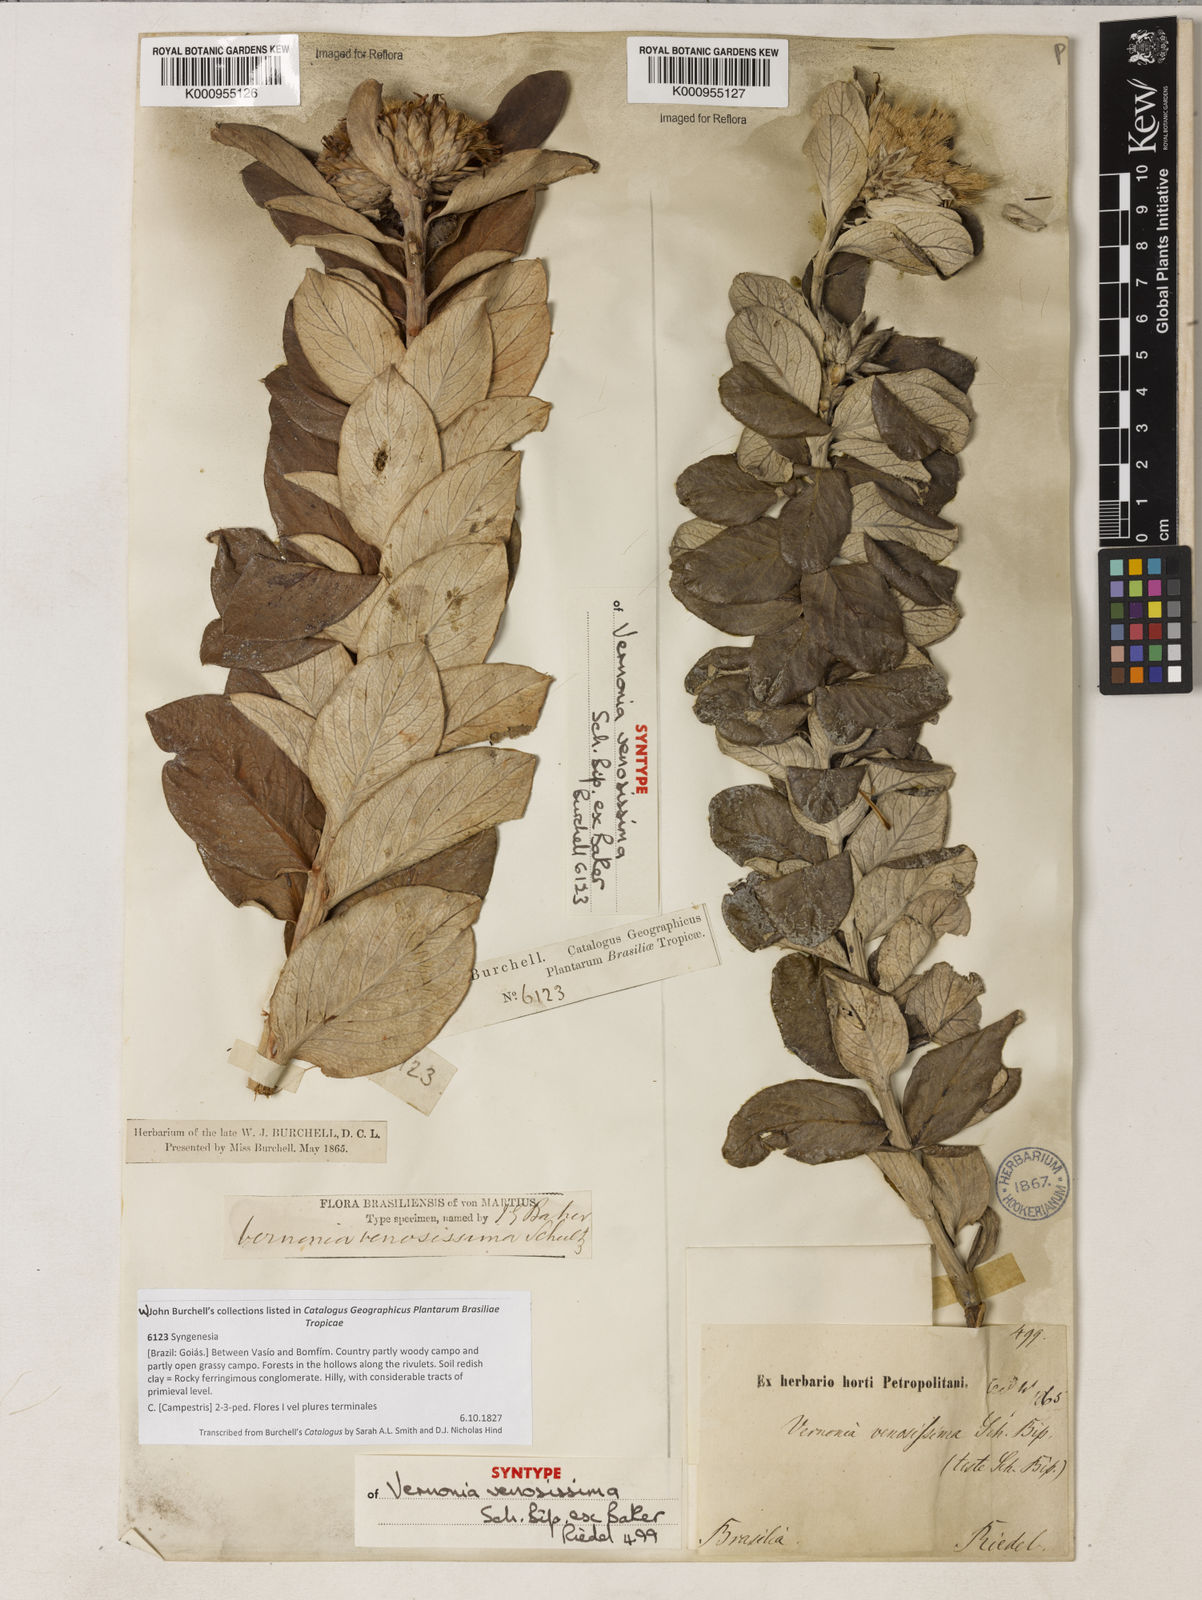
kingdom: Plantae
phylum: Tracheophyta
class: Magnoliopsida
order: Asterales
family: Asteraceae
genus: Lessingianthus
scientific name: Lessingianthus venosissimus
